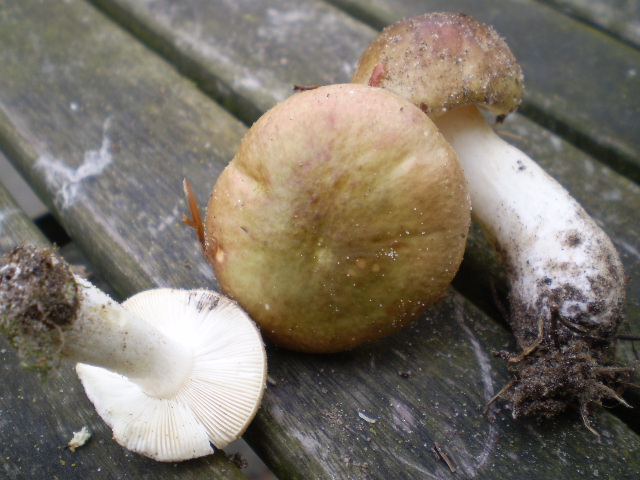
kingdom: Fungi
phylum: Basidiomycota
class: Agaricomycetes
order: Russulales
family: Russulaceae
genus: Russula
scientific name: Russula versicolor
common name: foranderlig skørhat
